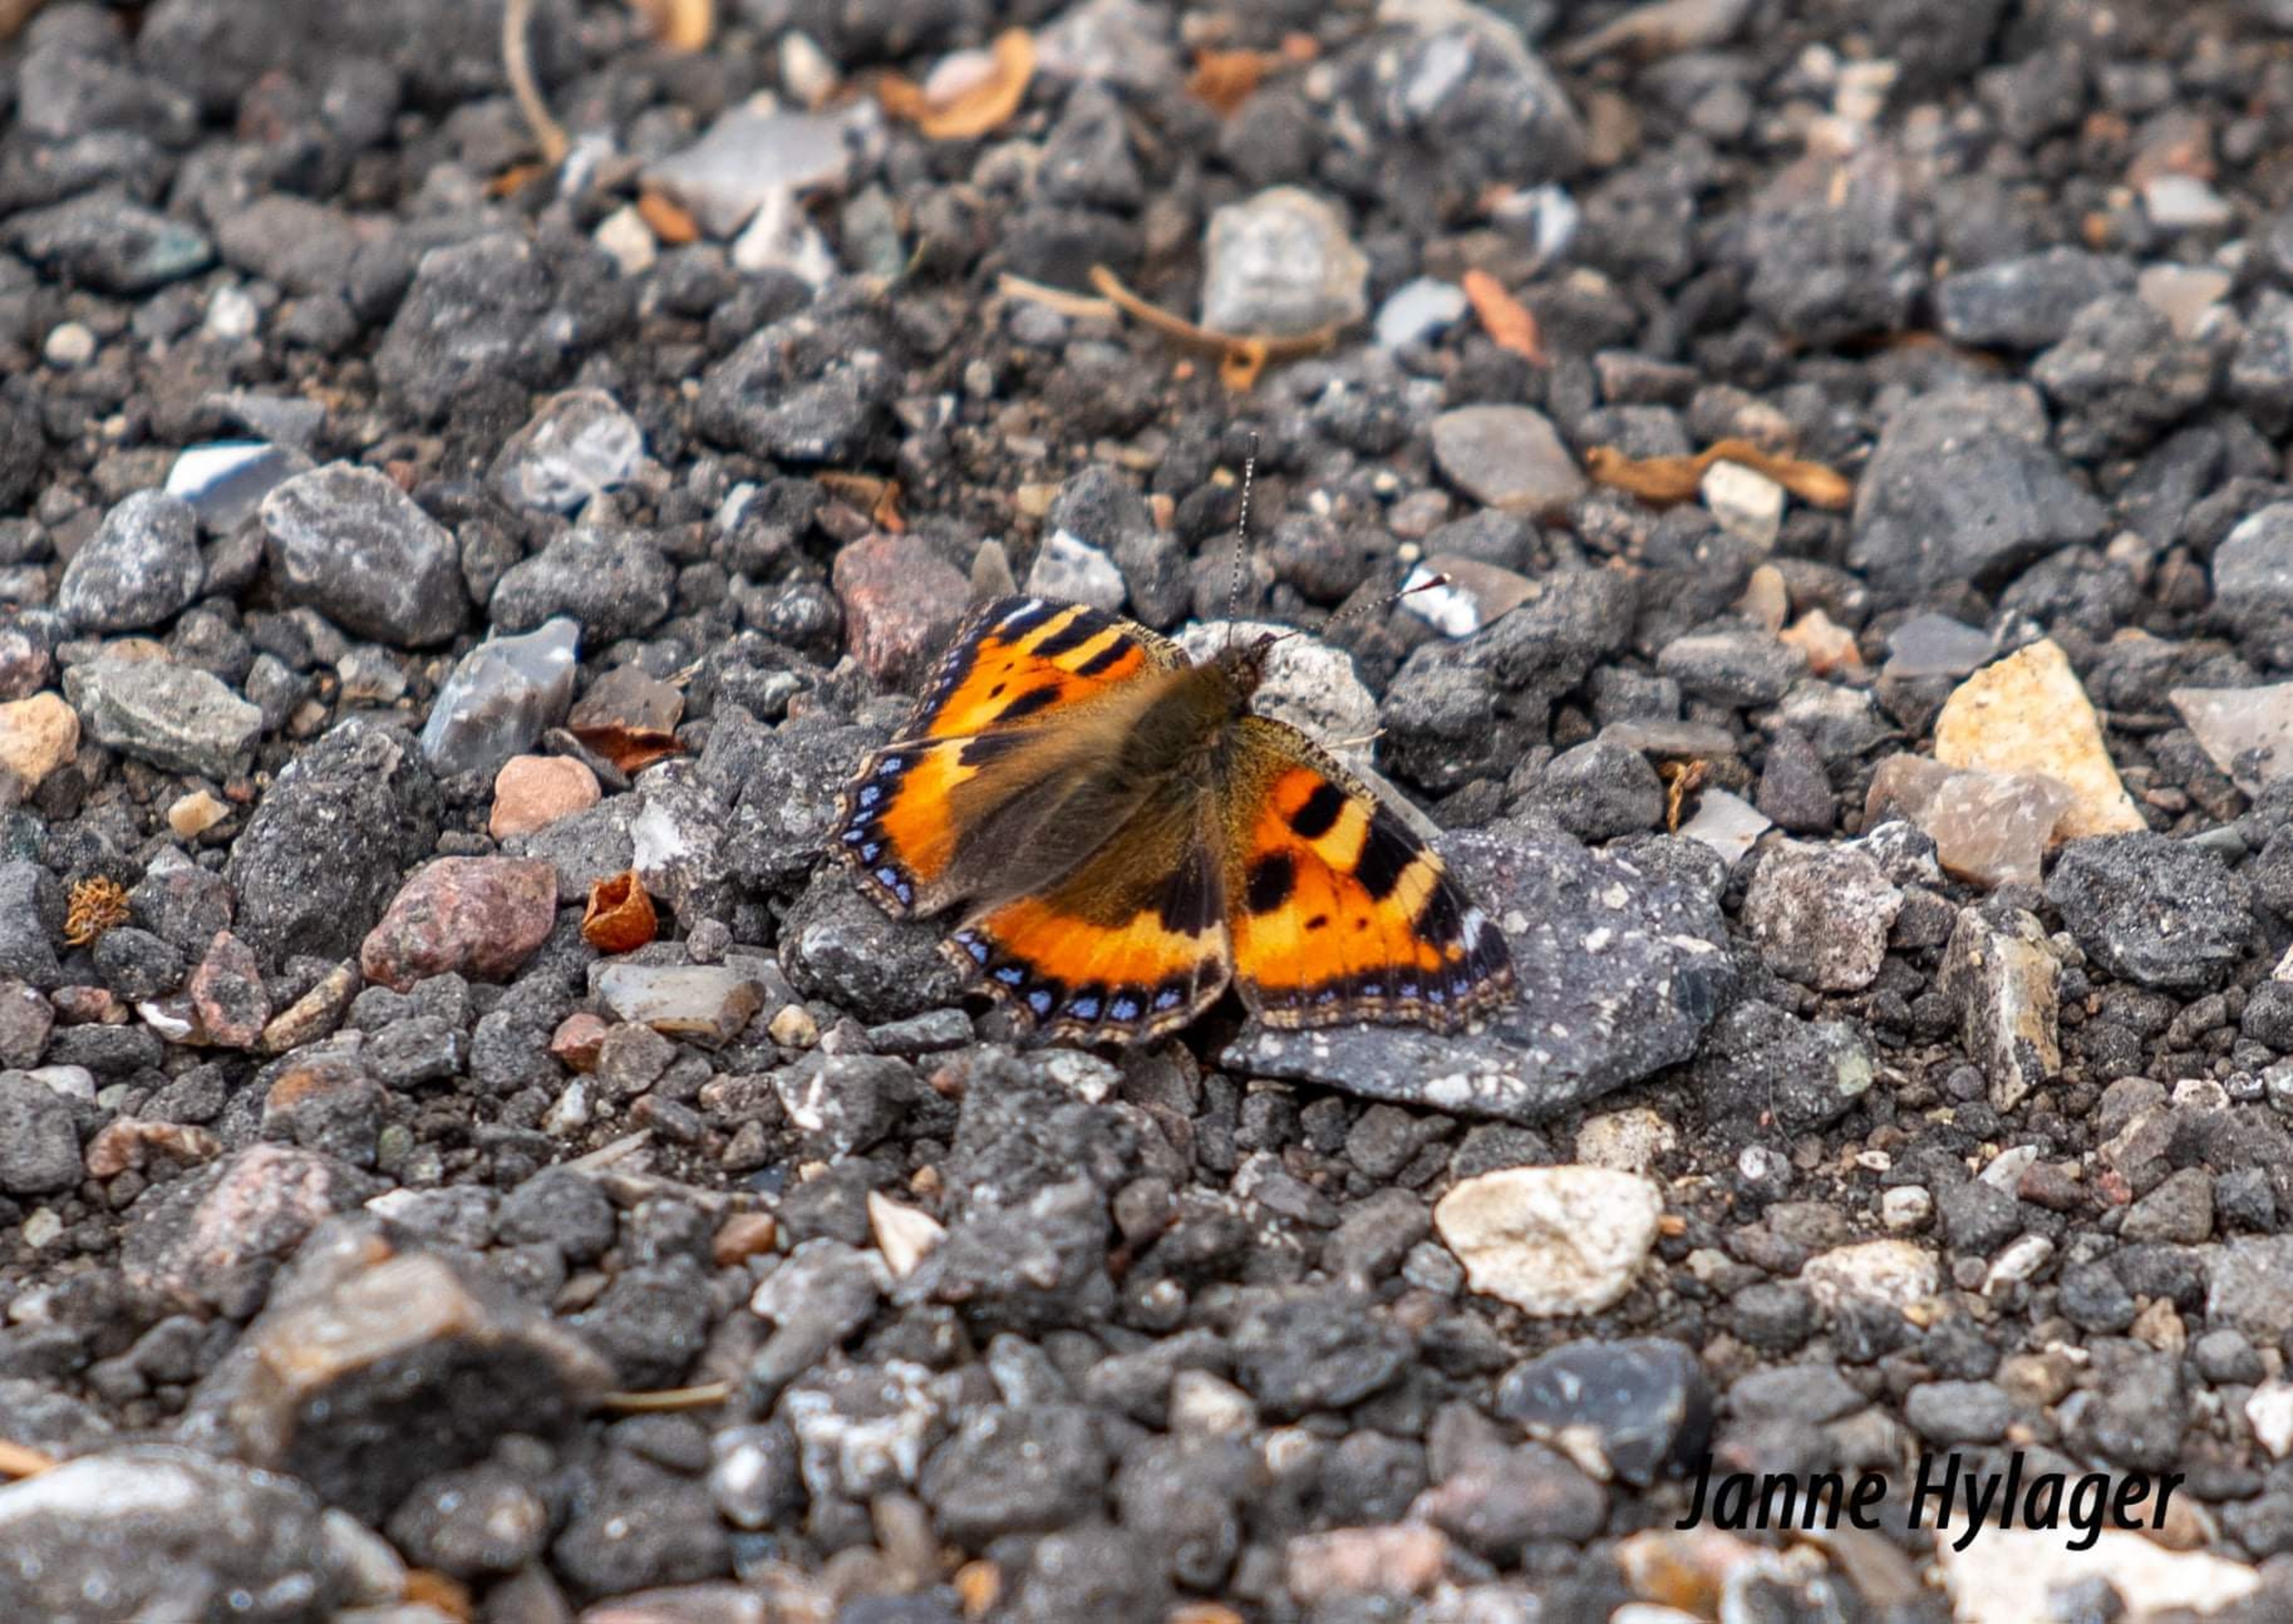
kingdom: Animalia
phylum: Arthropoda
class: Insecta
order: Lepidoptera
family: Nymphalidae
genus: Aglais
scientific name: Aglais urticae
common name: Nældens takvinge
